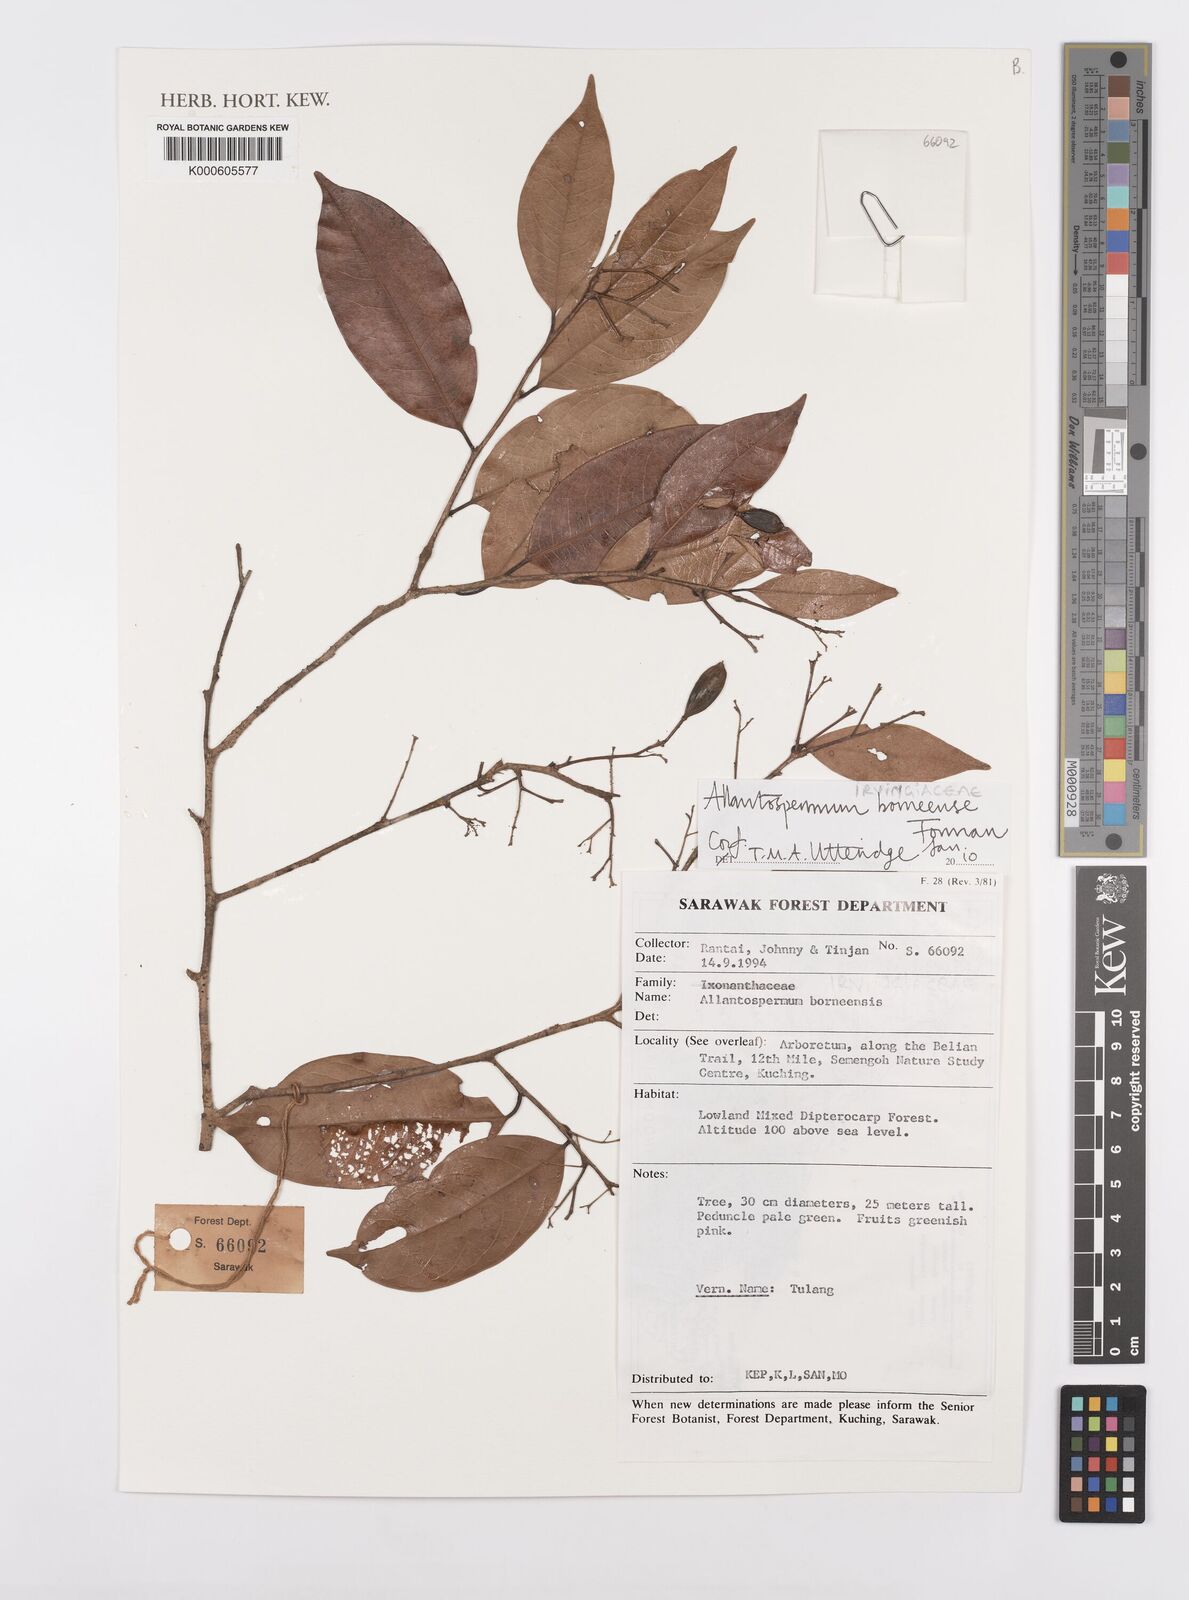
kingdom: Plantae
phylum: Tracheophyta
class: Magnoliopsida
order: Malpighiales
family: Ixonanthaceae
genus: Allantospermum
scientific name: Allantospermum borneense
